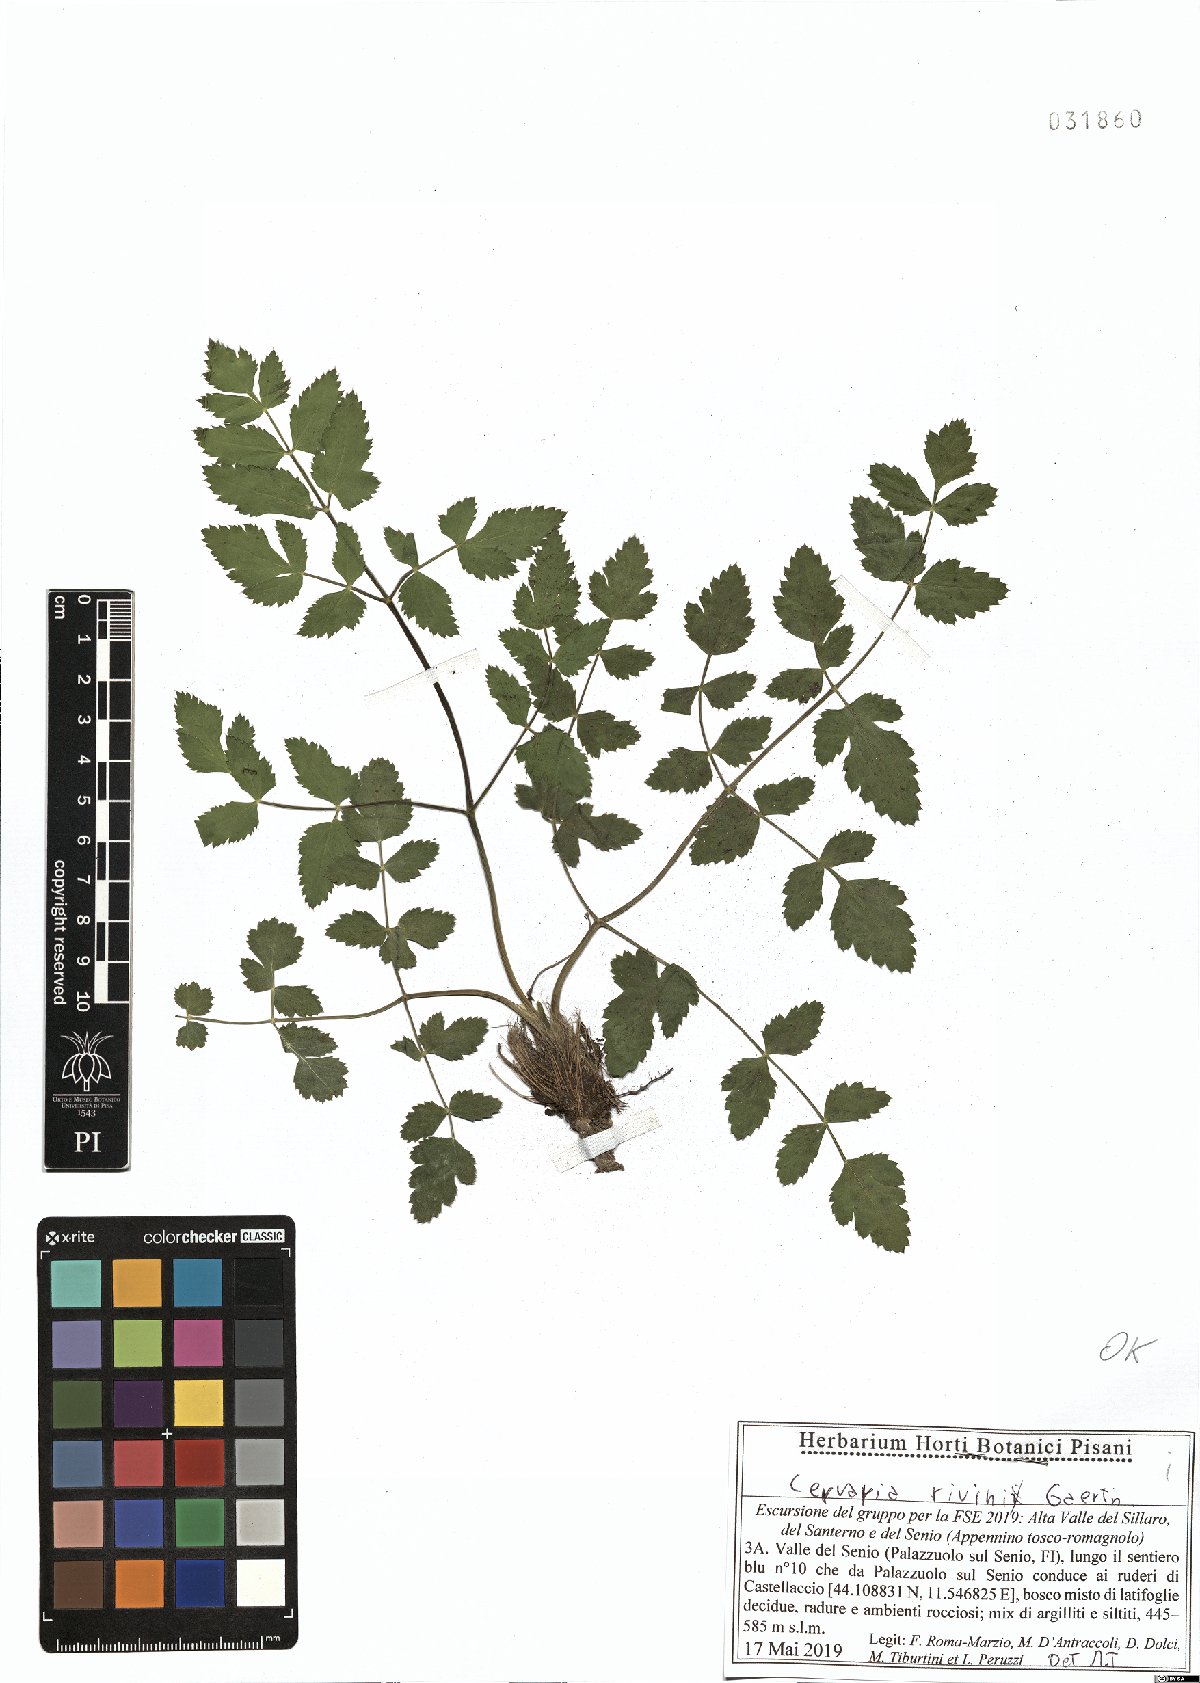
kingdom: Plantae
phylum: Tracheophyta
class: Magnoliopsida
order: Apiales
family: Apiaceae
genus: Cervaria
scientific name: Cervaria rivini
